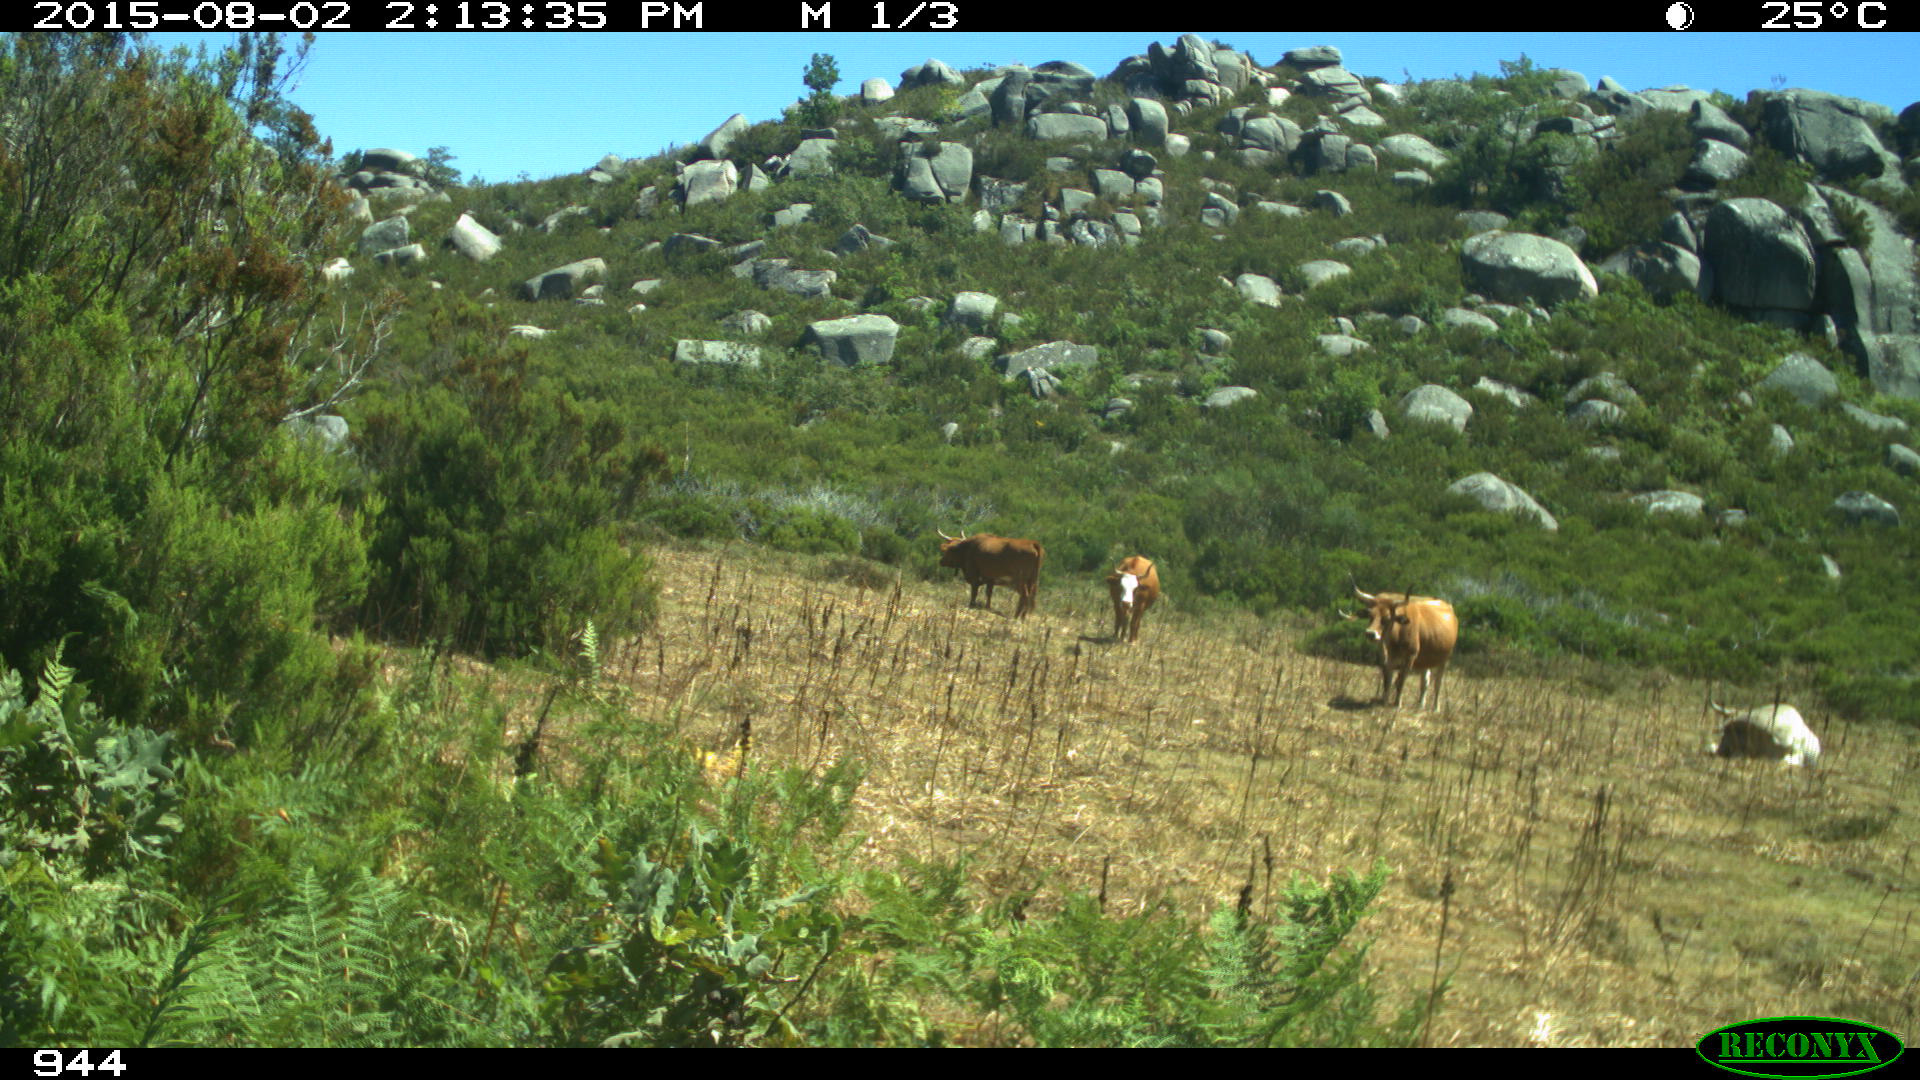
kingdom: Animalia
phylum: Chordata
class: Mammalia
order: Artiodactyla
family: Bovidae
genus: Bos
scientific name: Bos taurus
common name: Domesticated cattle
